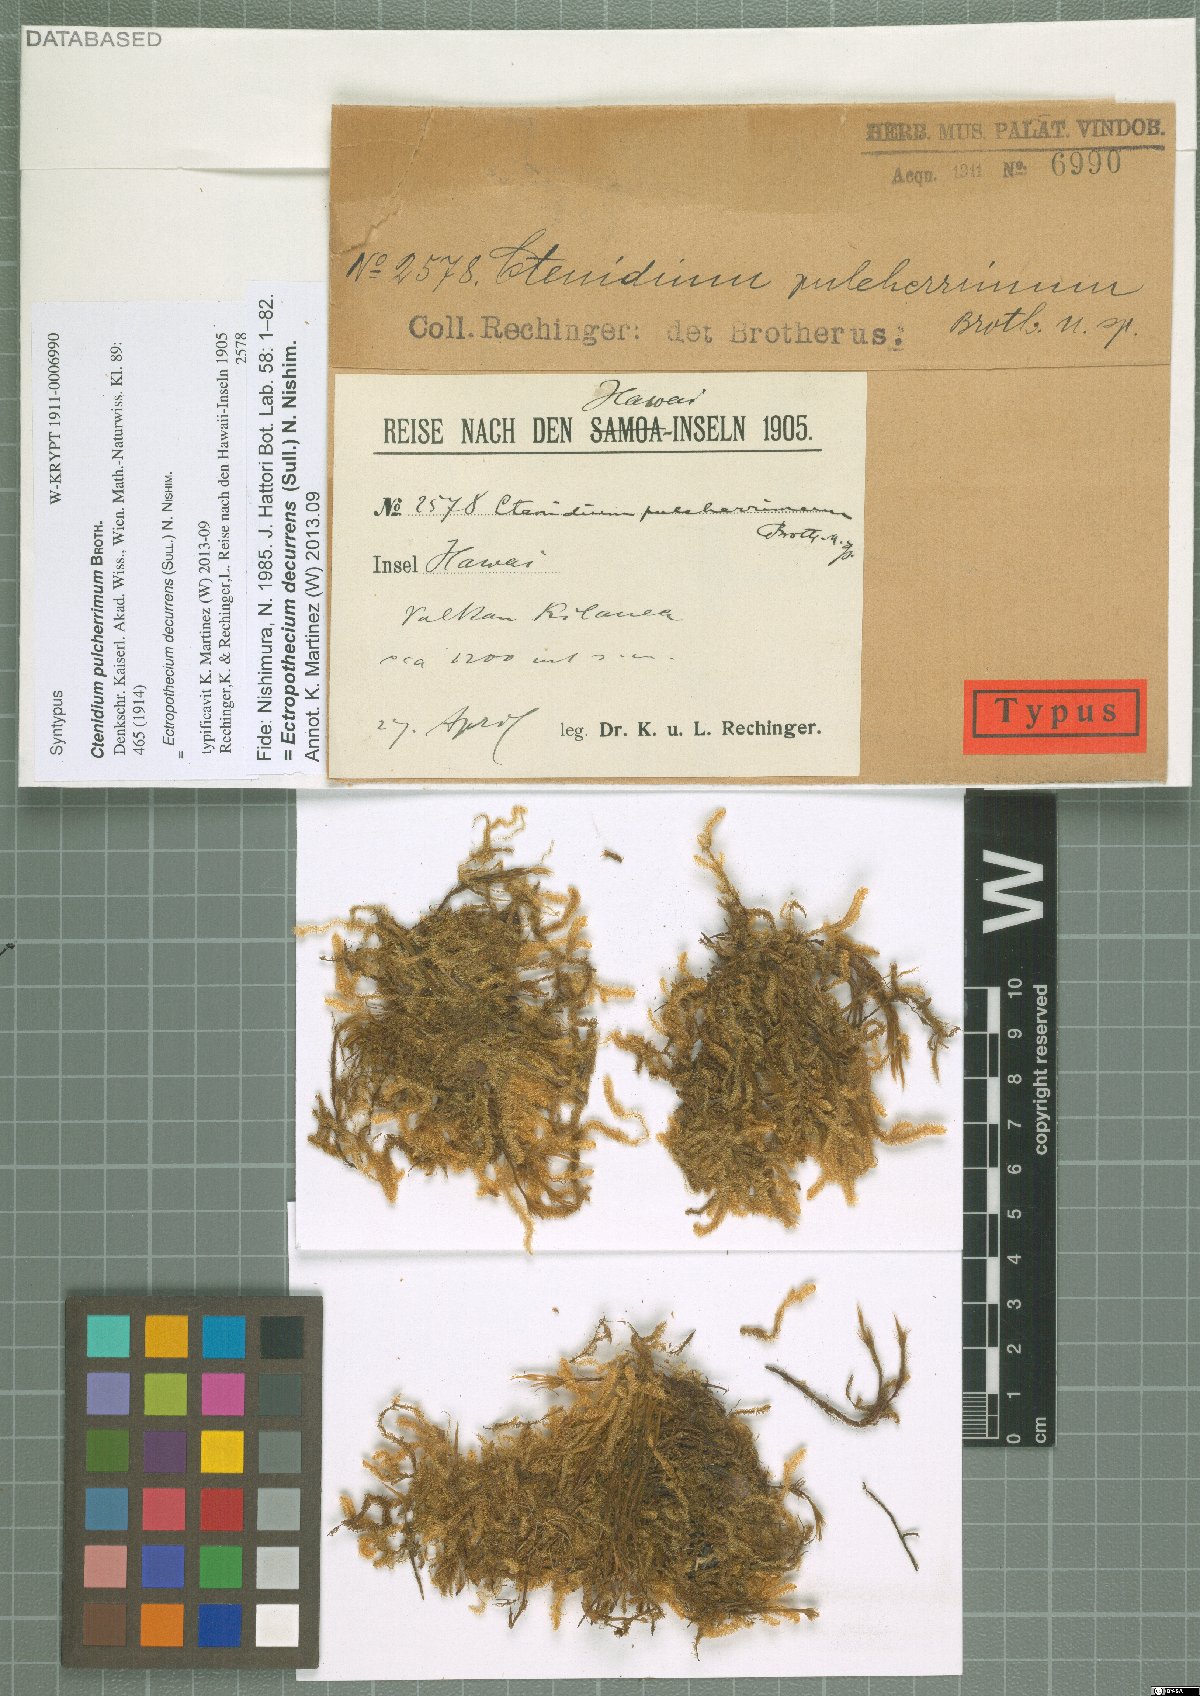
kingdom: Plantae
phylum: Bryophyta
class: Bryopsida
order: Hypnales
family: Hypnaceae
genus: Ectropothecium
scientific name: Ectropothecium decurrens
